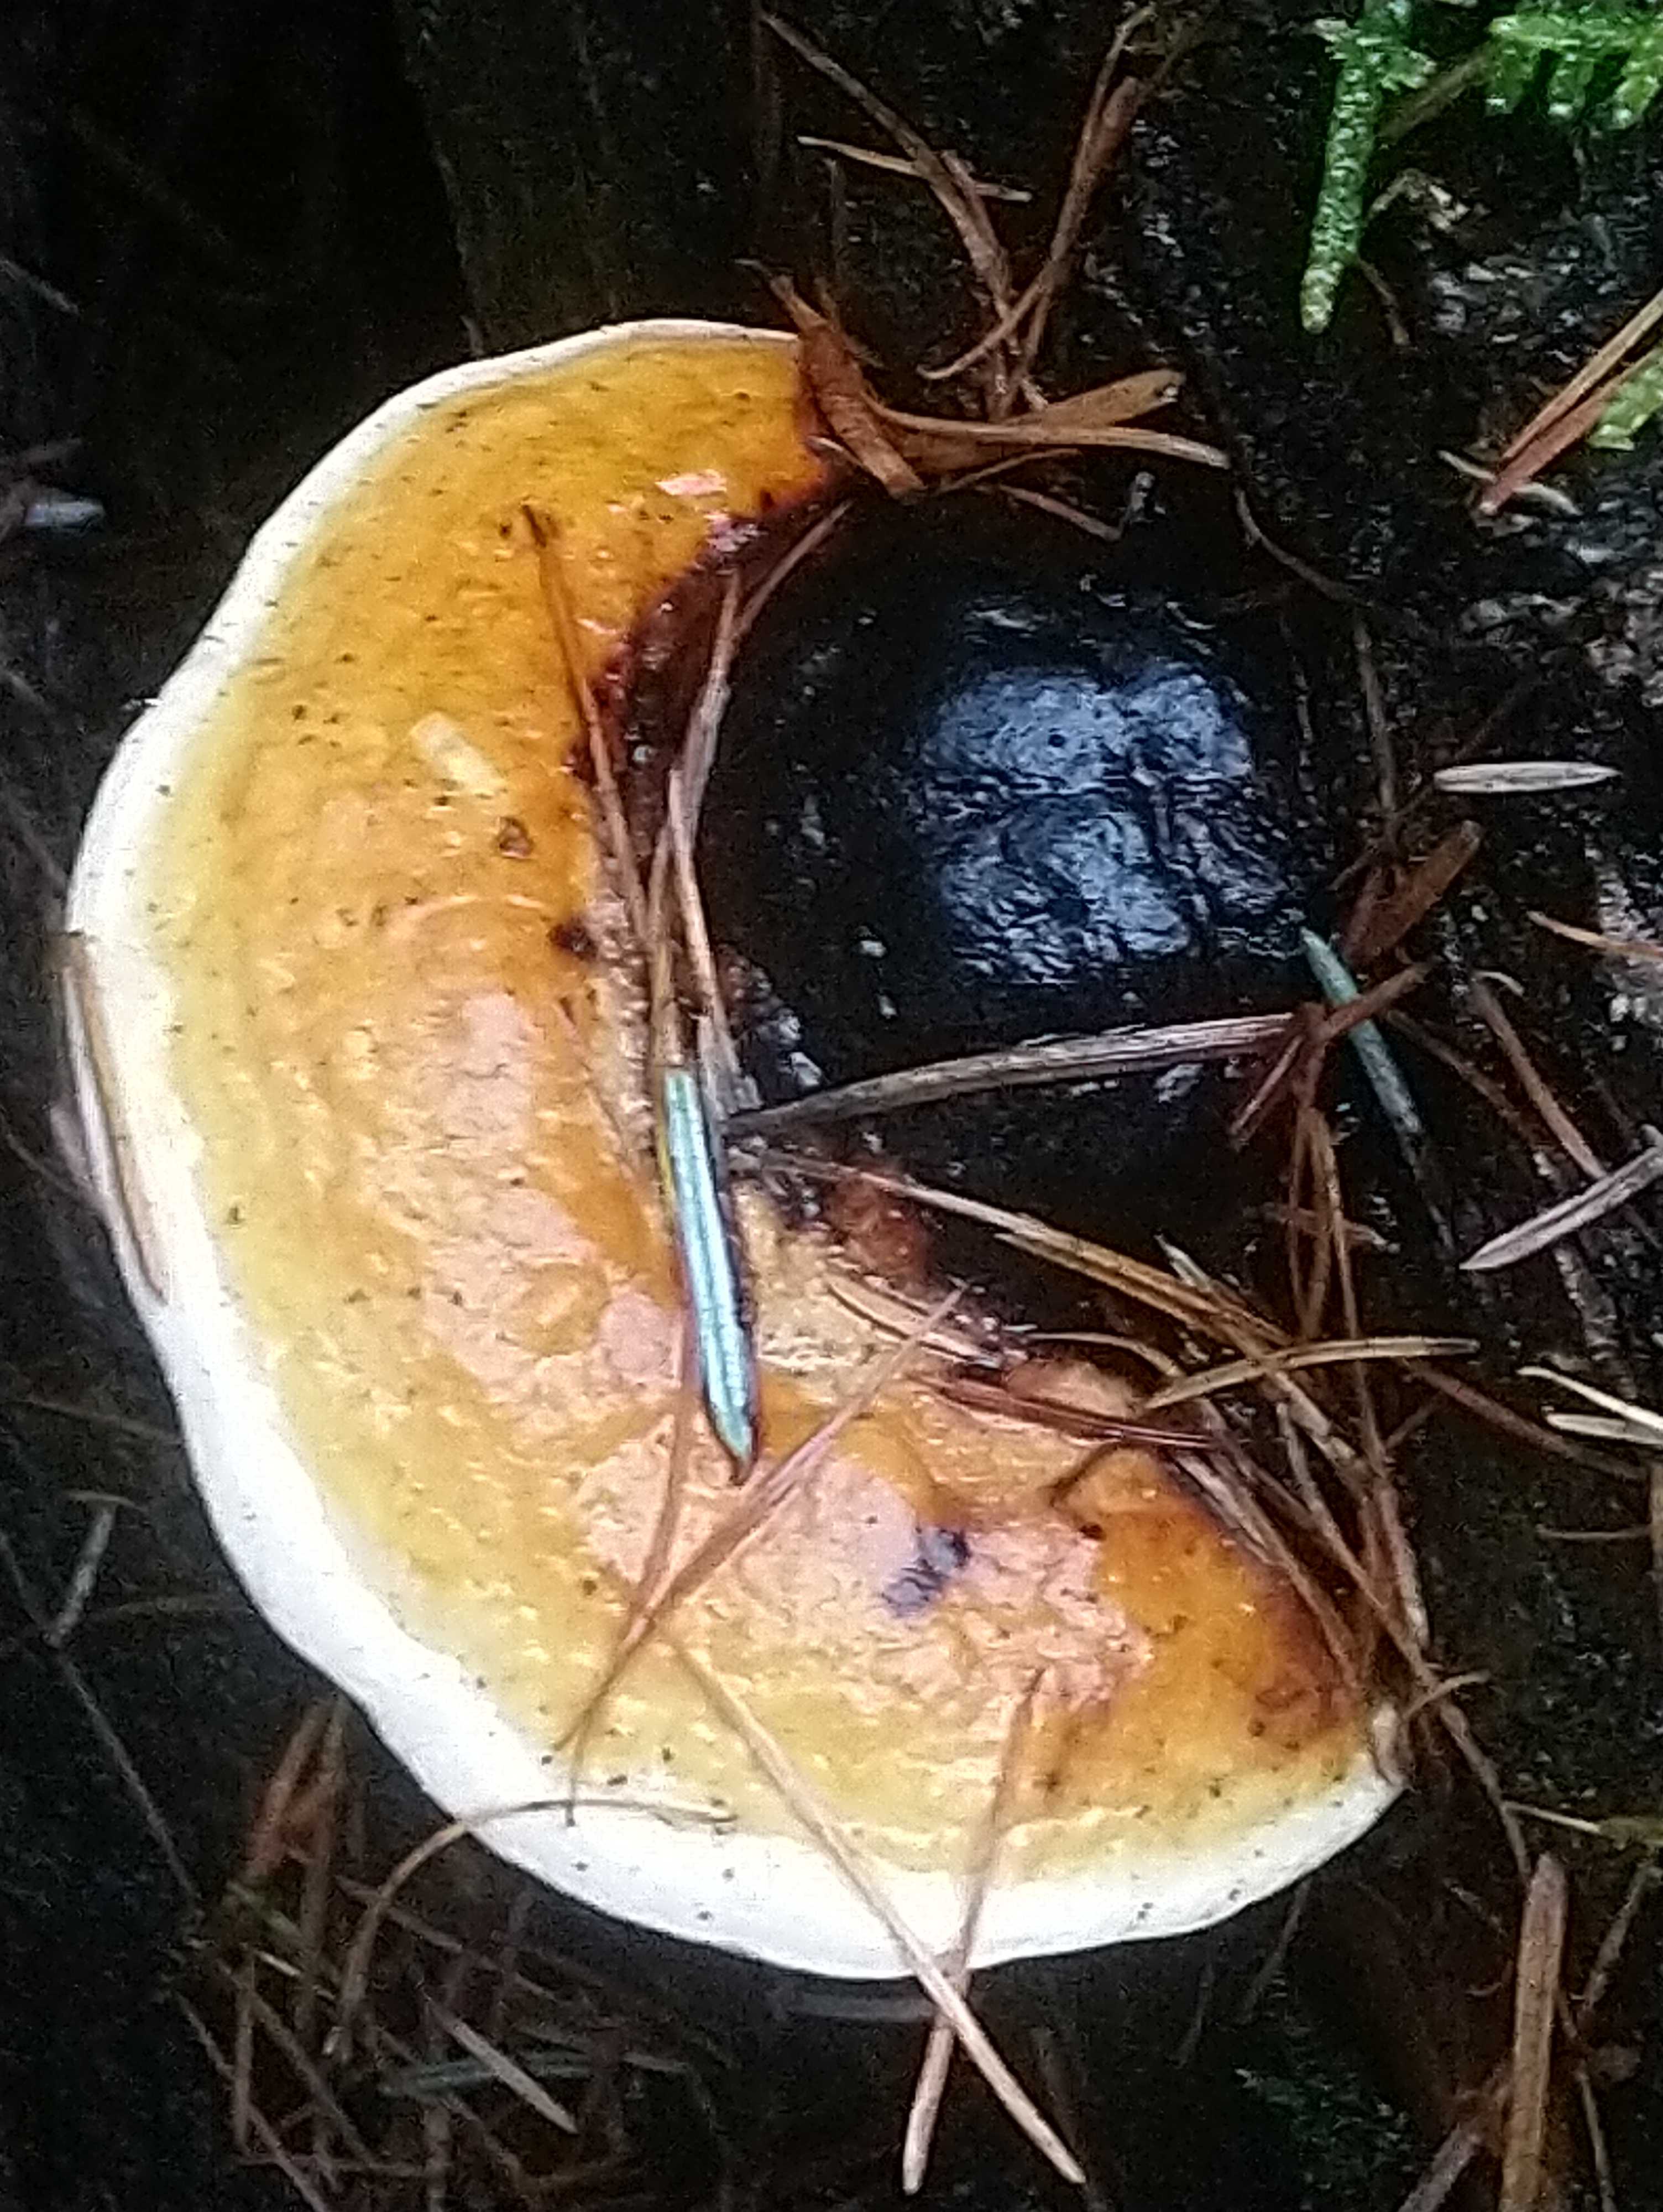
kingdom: Fungi
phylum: Basidiomycota
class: Agaricomycetes
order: Polyporales
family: Fomitopsidaceae
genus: Fomitopsis
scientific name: Fomitopsis pinicola
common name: randbæltet hovporesvamp
